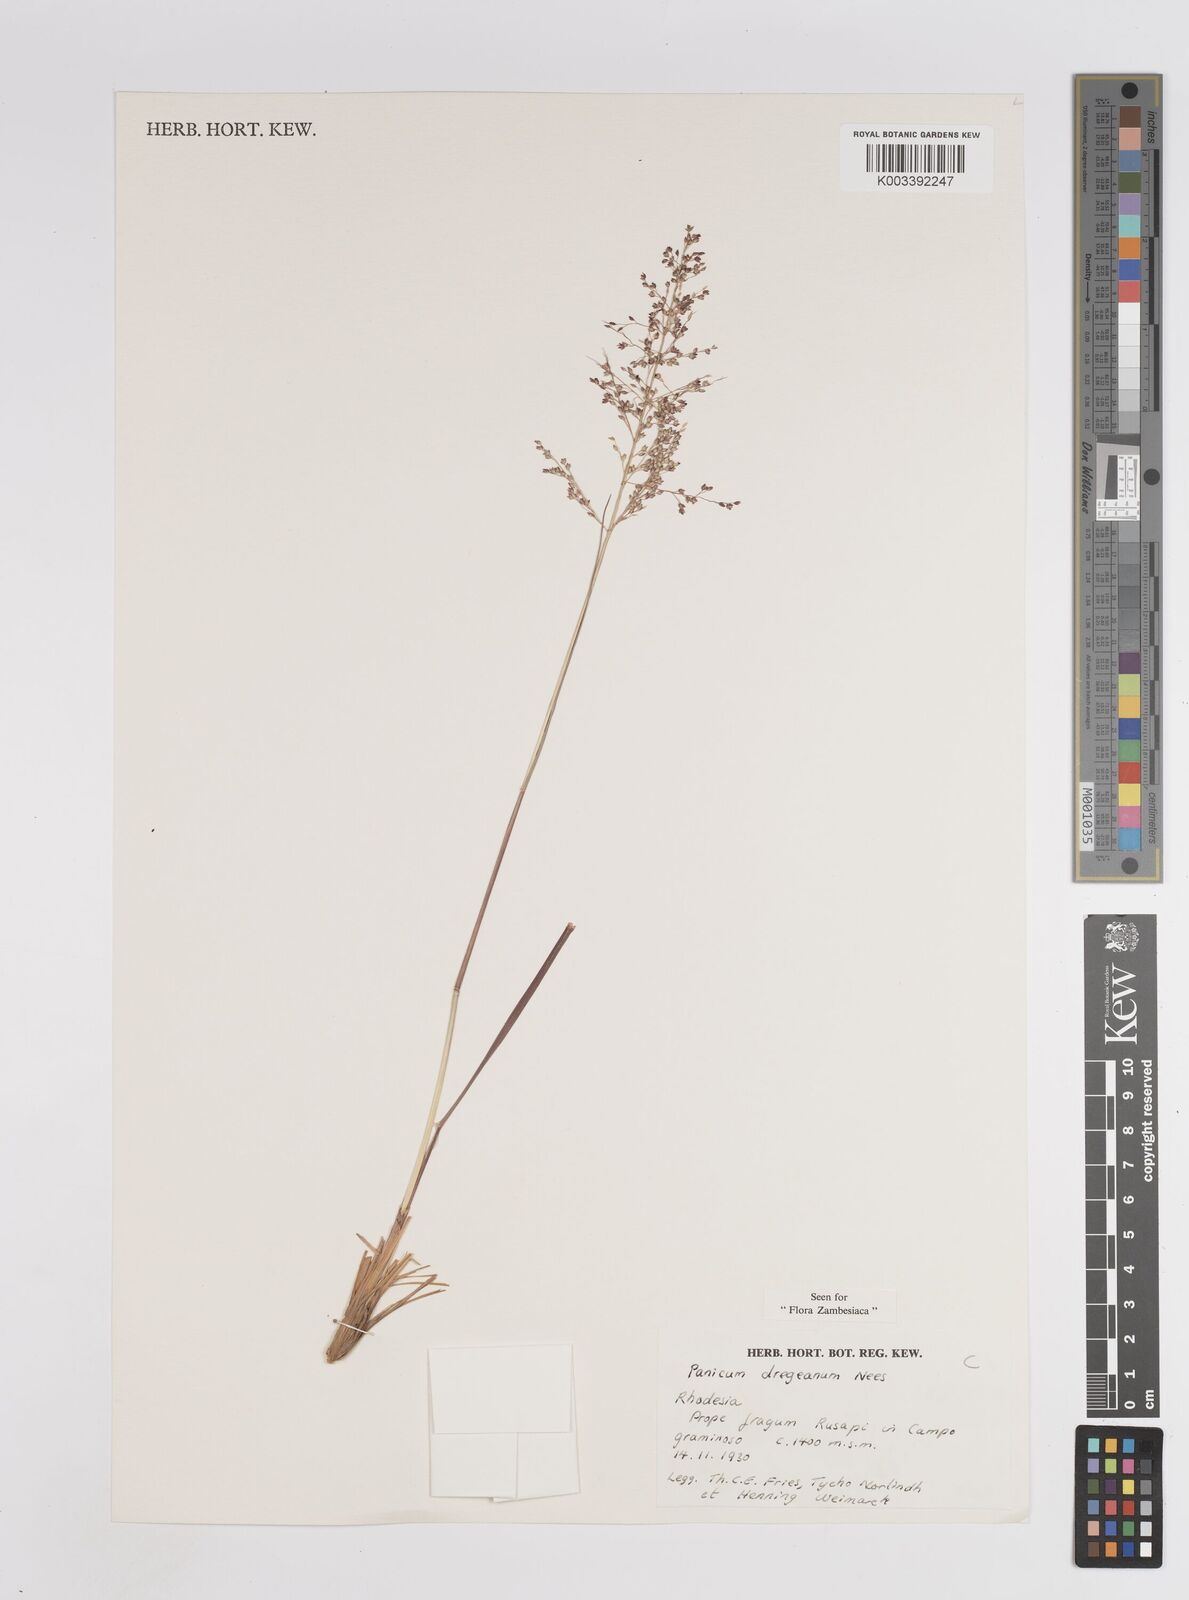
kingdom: Plantae
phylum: Tracheophyta
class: Liliopsida
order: Poales
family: Poaceae
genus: Panicum
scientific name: Panicum dregeanum
